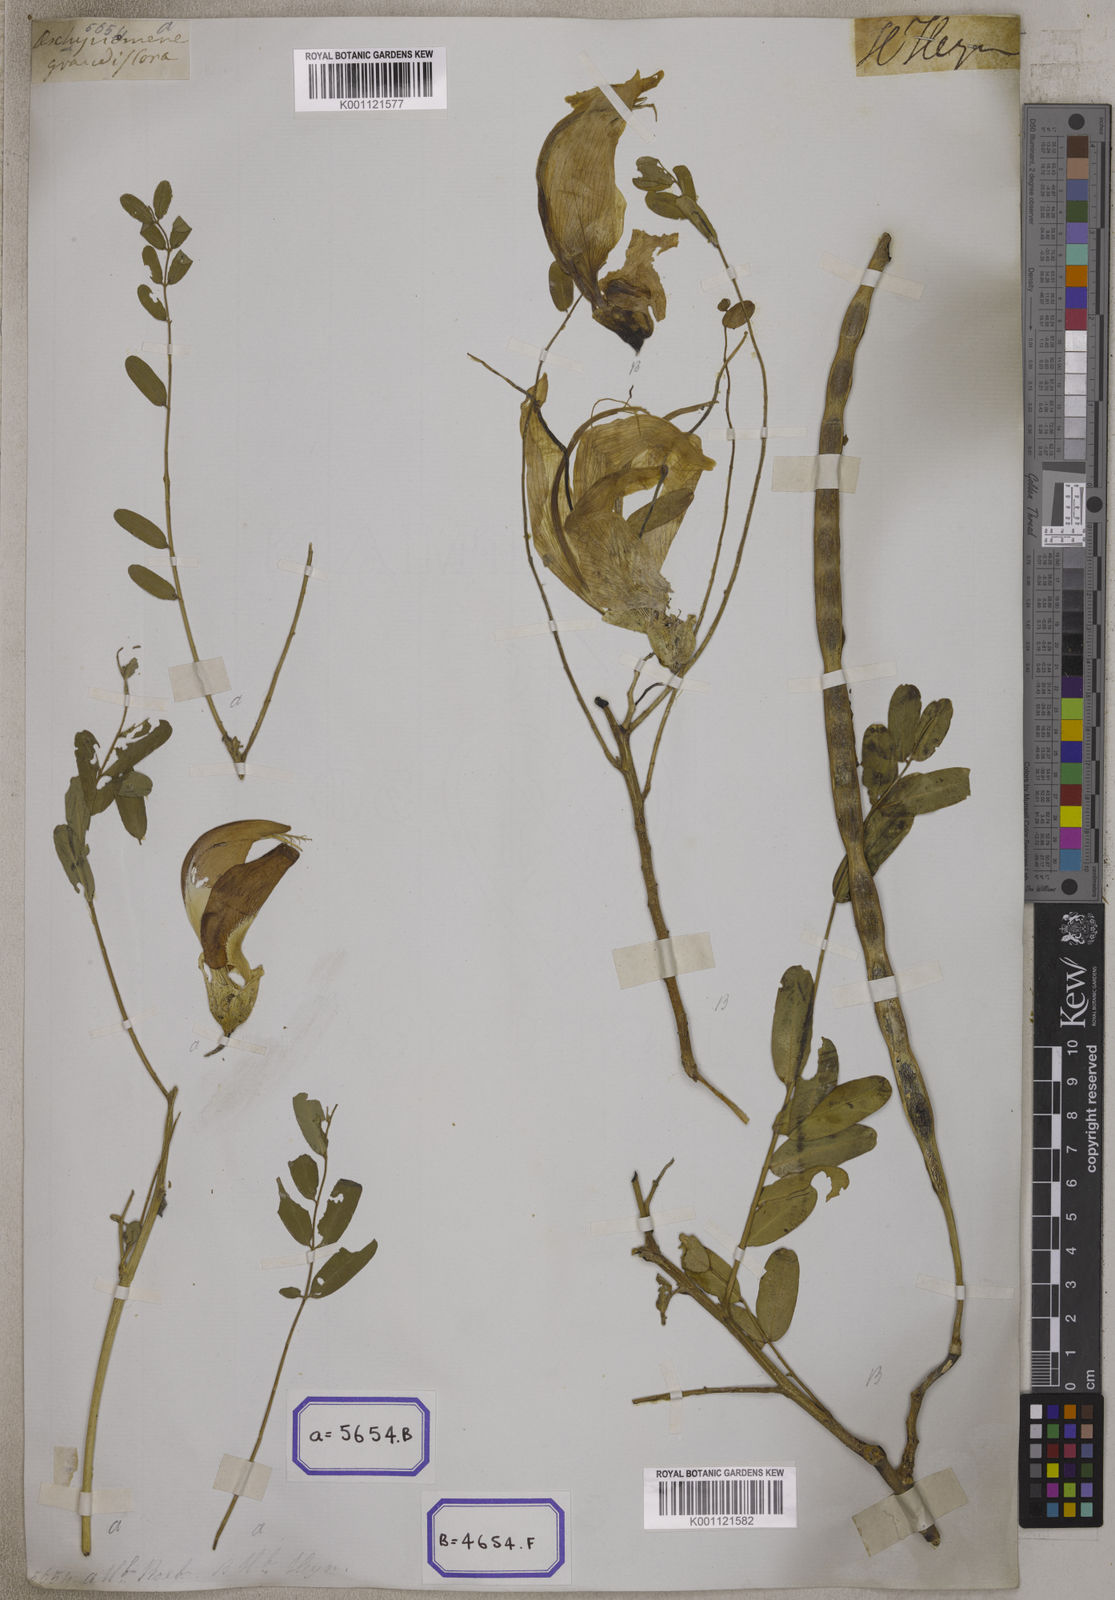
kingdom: Plantae
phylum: Tracheophyta
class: Magnoliopsida
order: Fabales
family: Fabaceae
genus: Sesbania
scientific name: Sesbania grandiflora
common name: Vegetable-hummingbird
